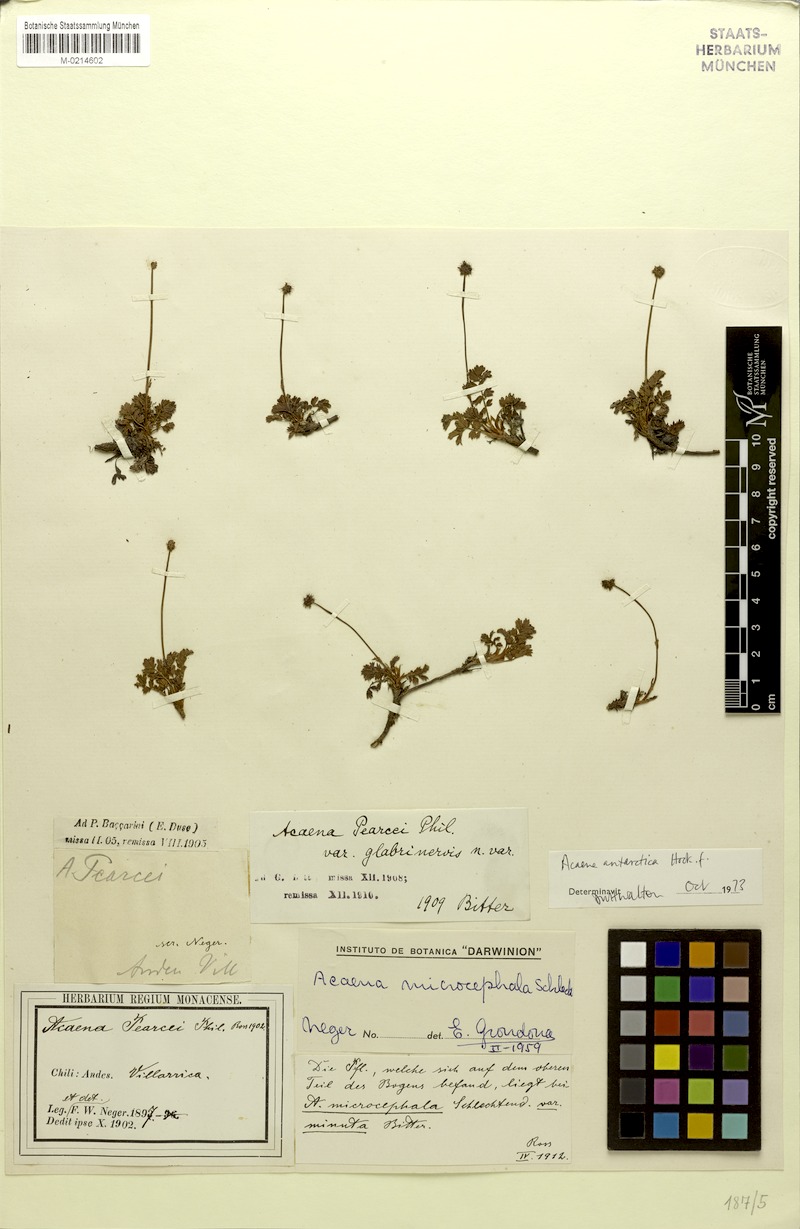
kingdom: Plantae
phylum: Tracheophyta
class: Magnoliopsida
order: Rosales
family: Rosaceae
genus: Acaena
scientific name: Acaena antarctica
